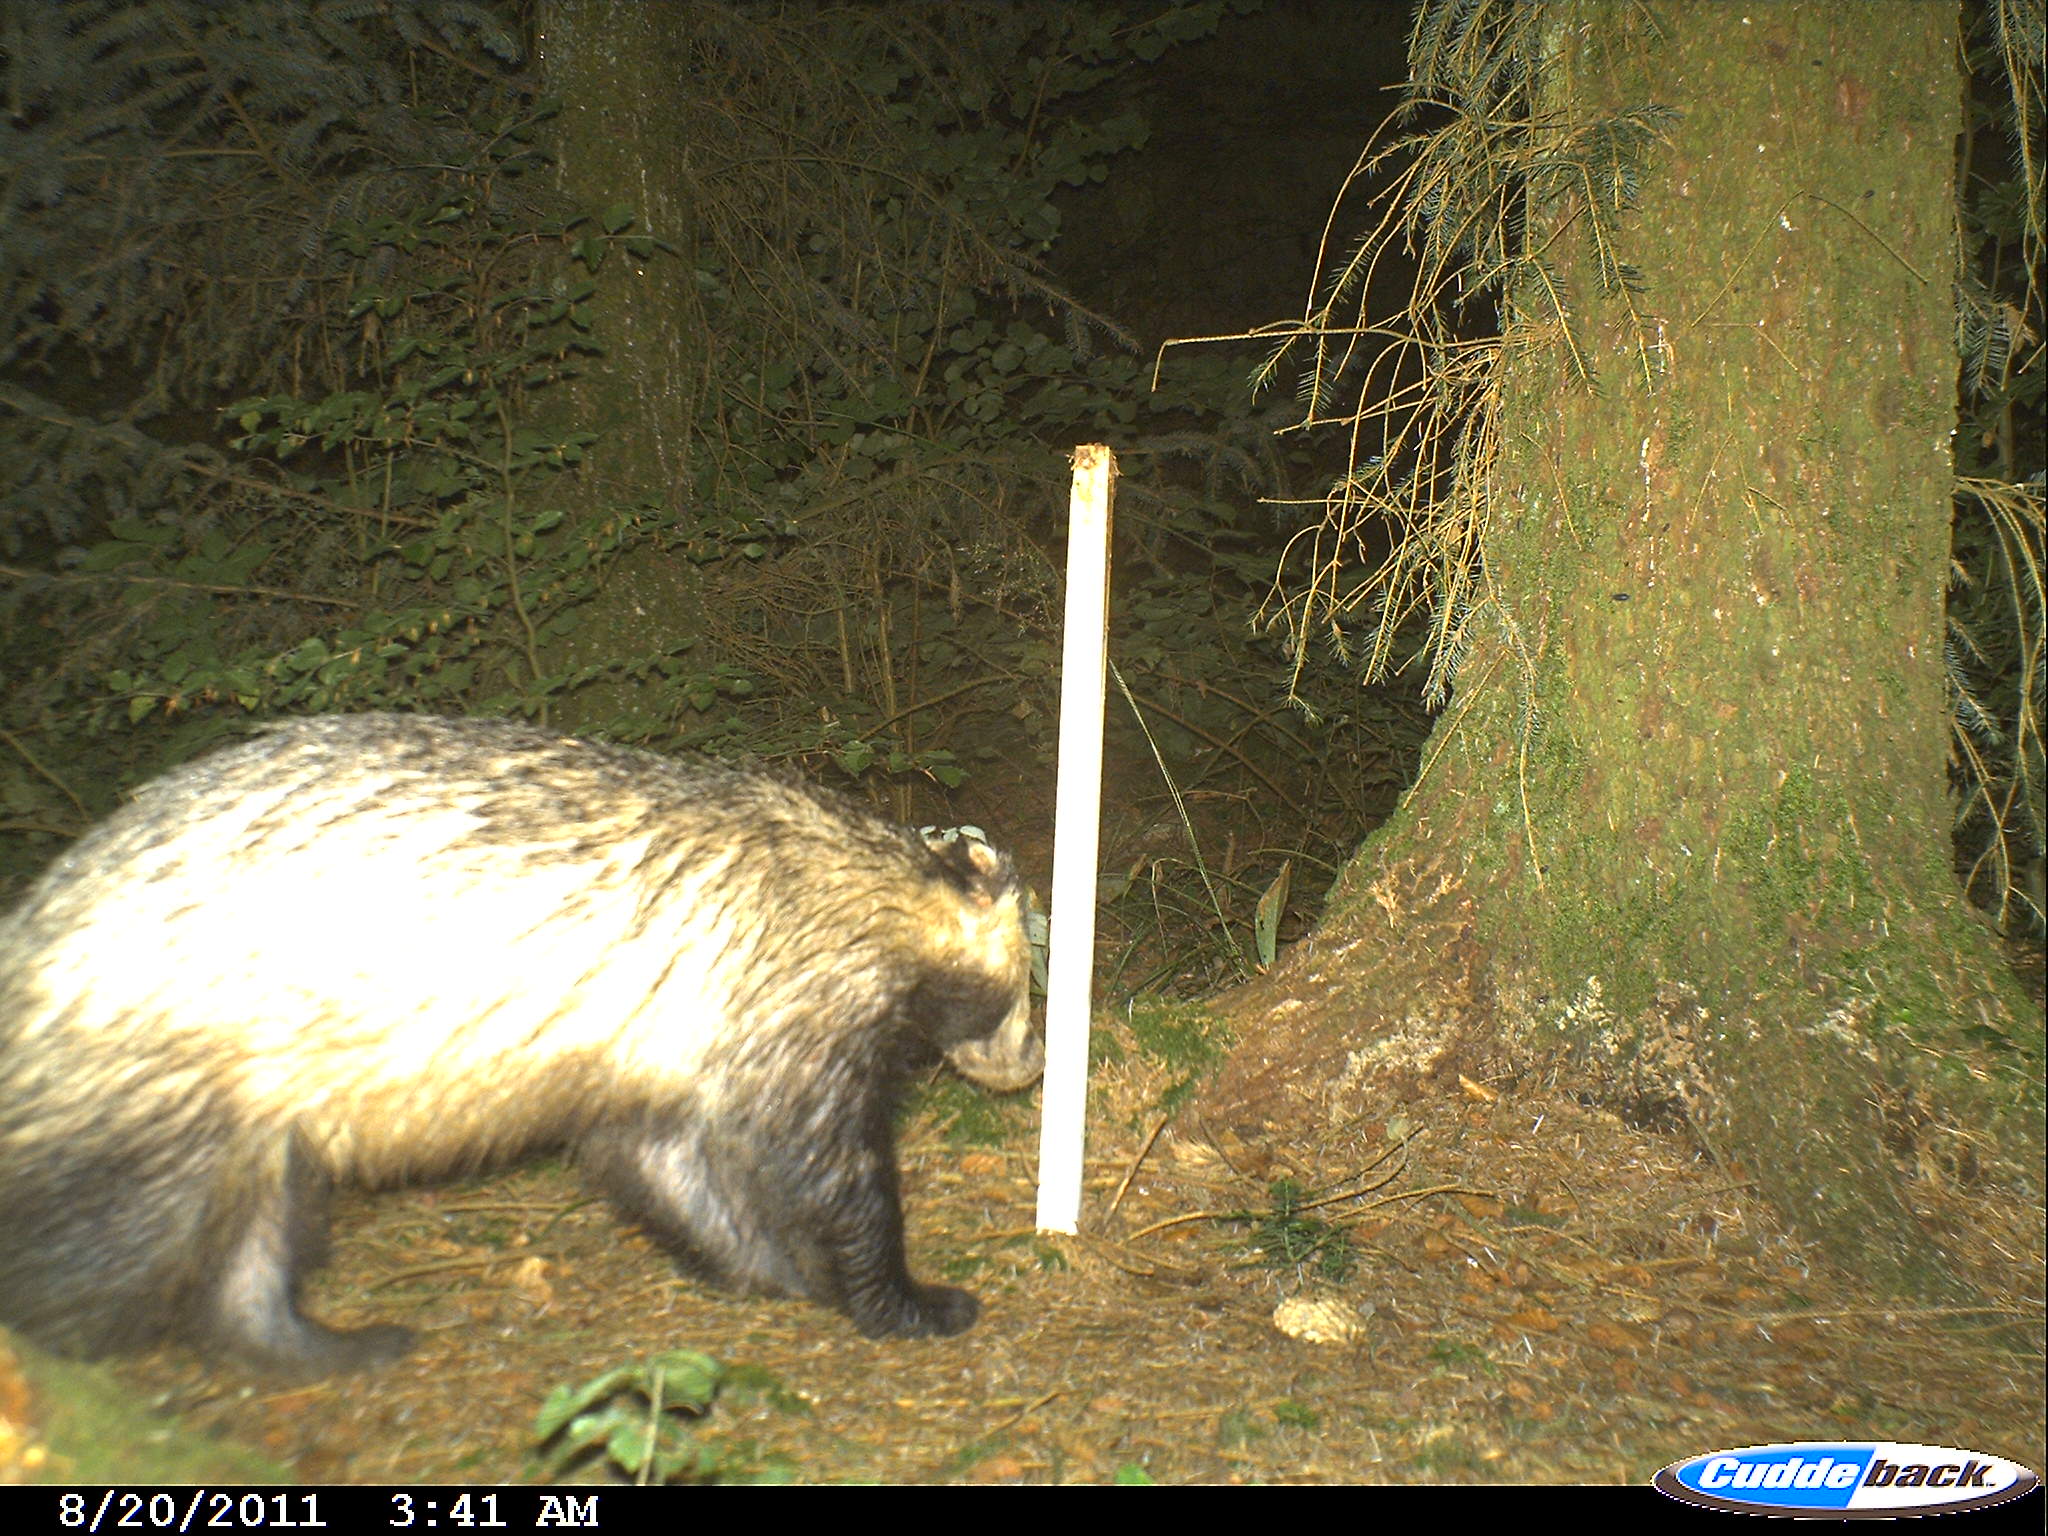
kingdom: Animalia
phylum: Chordata
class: Mammalia
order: Carnivora
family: Mustelidae
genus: Meles
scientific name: Meles meles
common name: Eurasian badger
